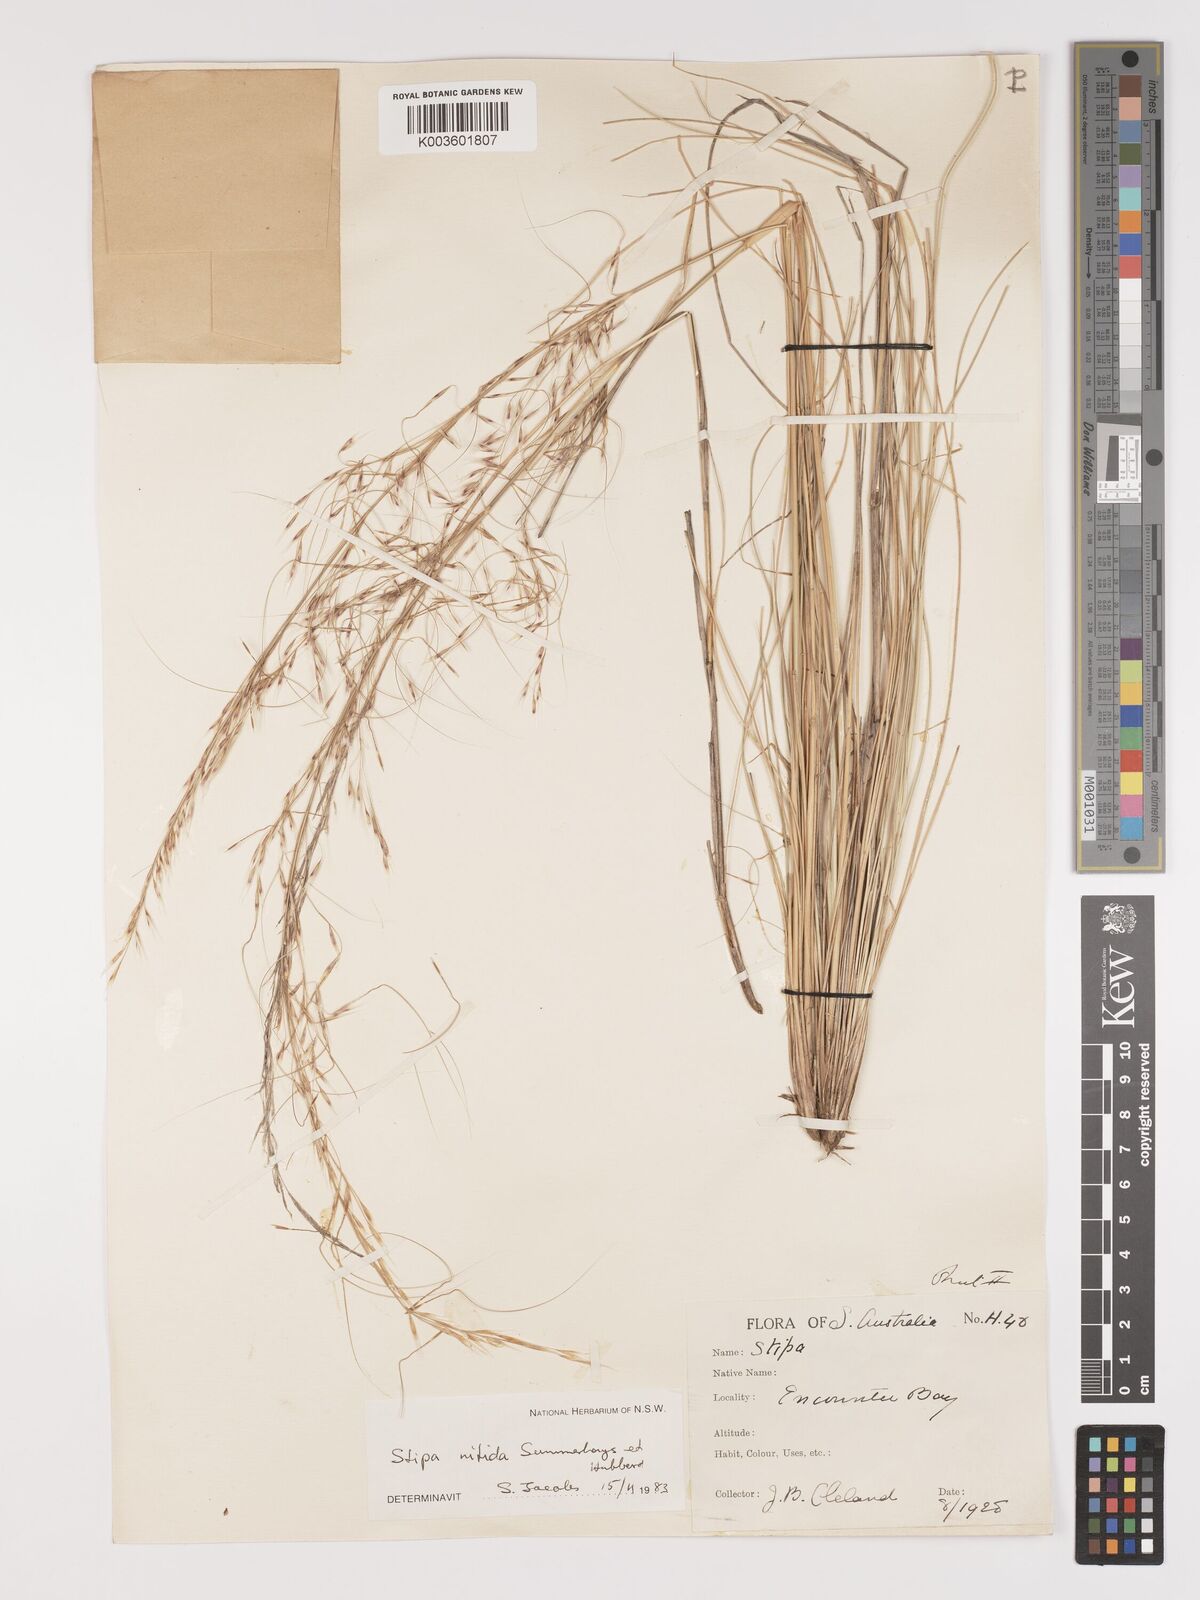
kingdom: Plantae
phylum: Tracheophyta
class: Liliopsida
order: Poales
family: Poaceae
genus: Austrostipa
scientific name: Austrostipa nitida
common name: Balcarra grass
